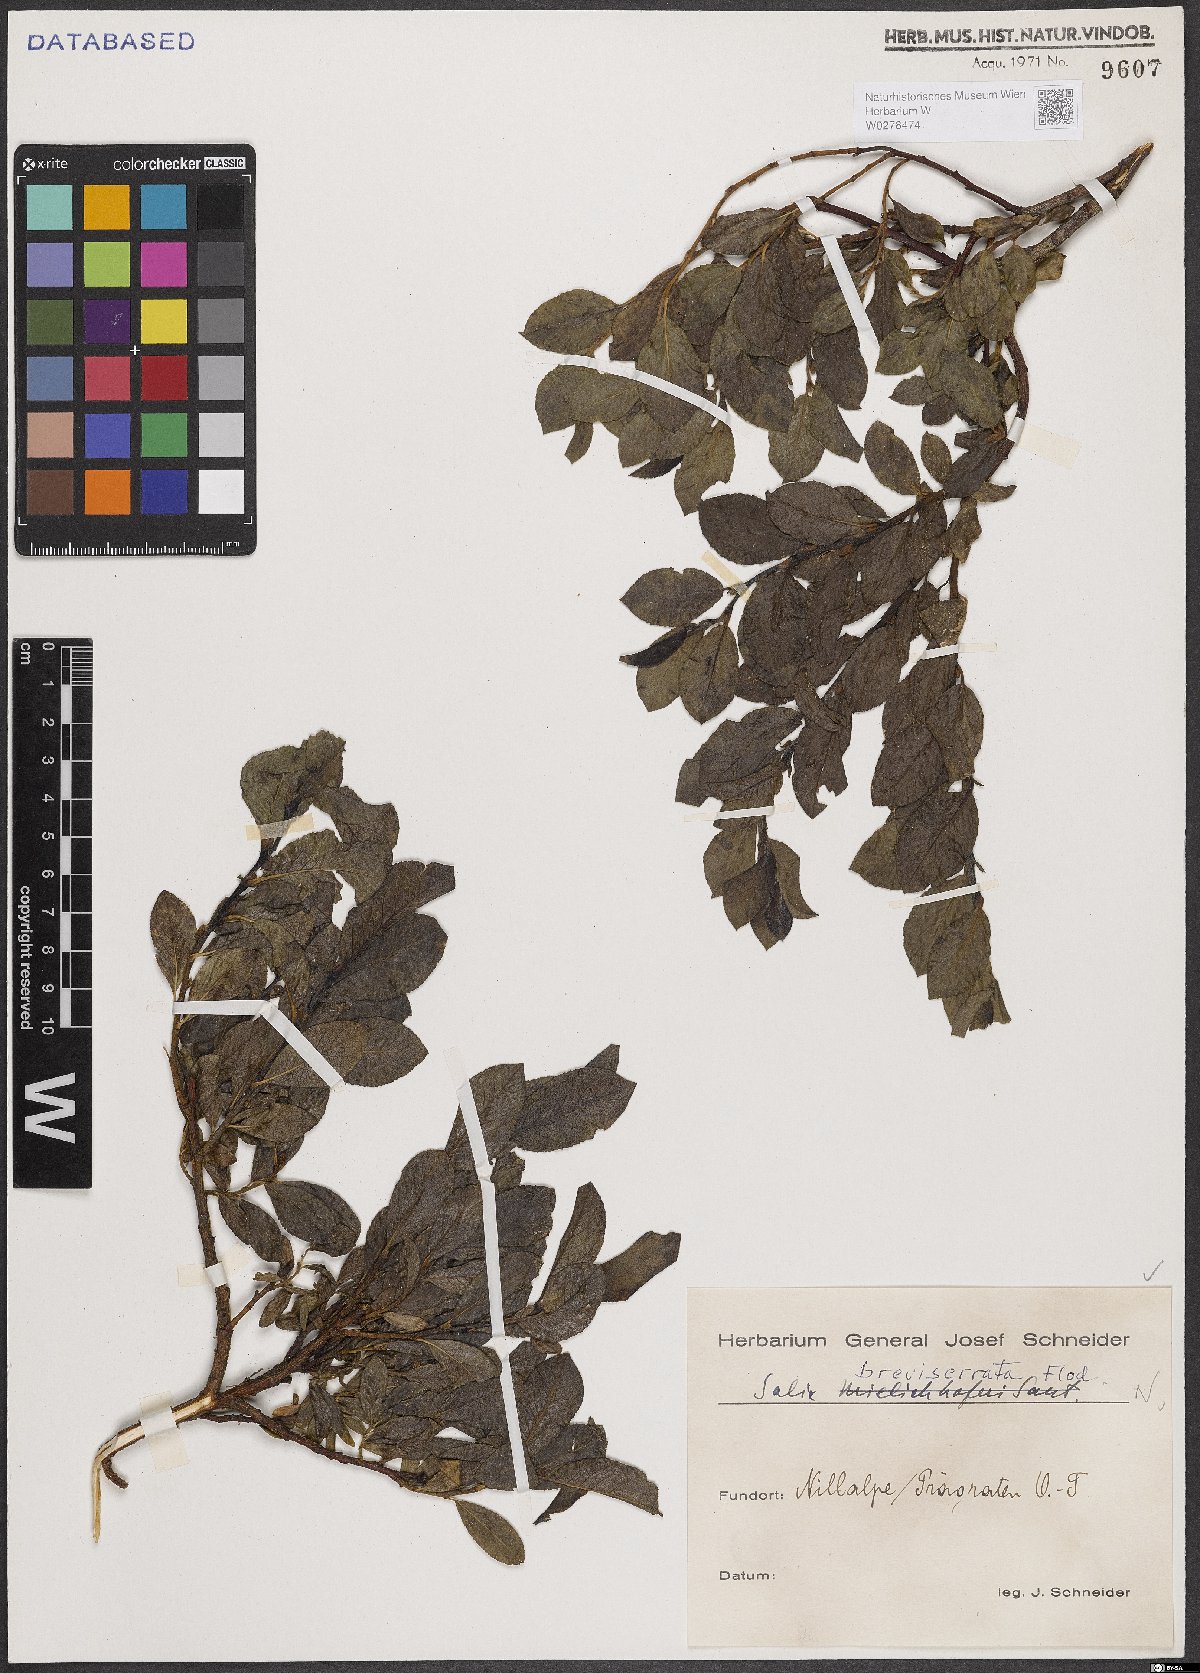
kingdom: Plantae
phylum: Tracheophyta
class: Magnoliopsida
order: Malpighiales
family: Salicaceae
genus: Salix
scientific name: Salix breviserrata
